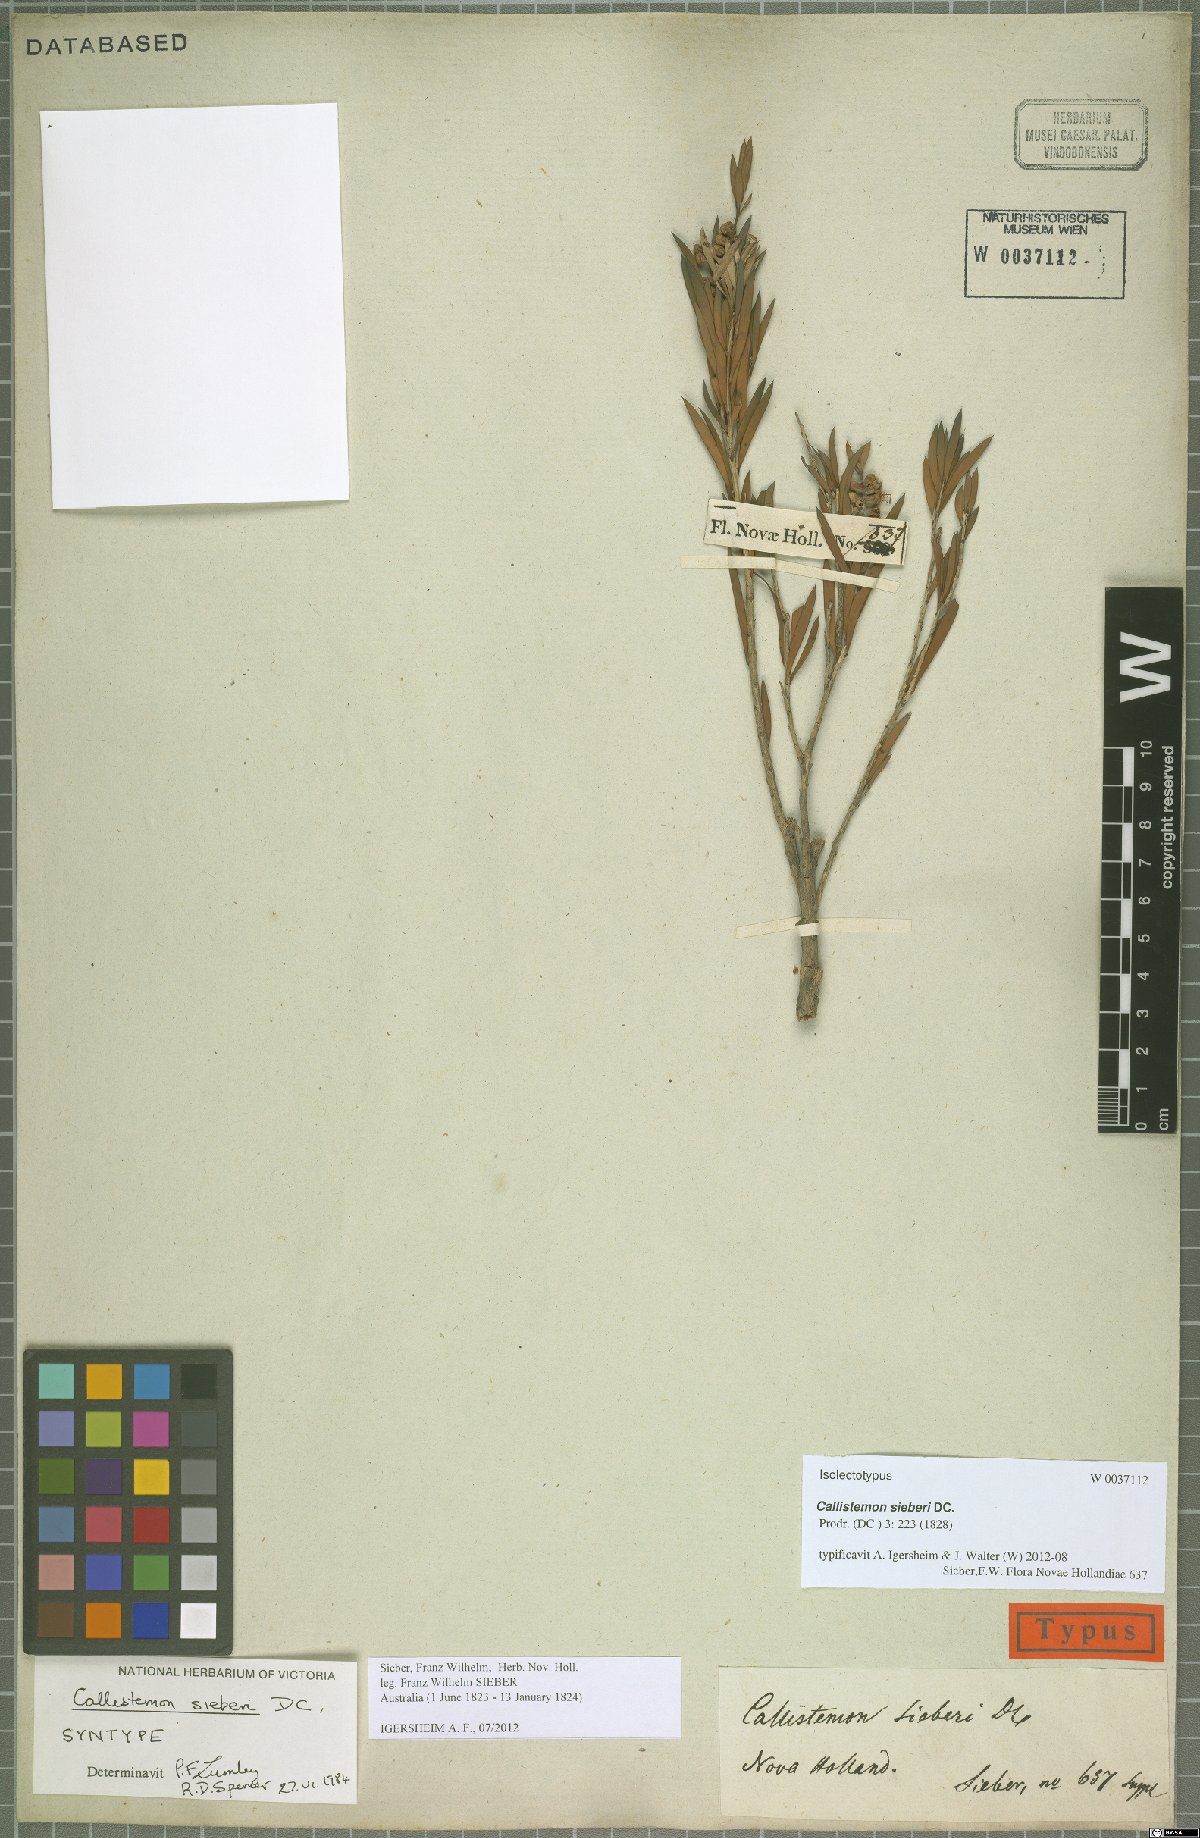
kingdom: Plantae
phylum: Tracheophyta
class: Magnoliopsida
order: Myrtales
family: Myrtaceae
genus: Callistemon
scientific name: Callistemon paludosus
